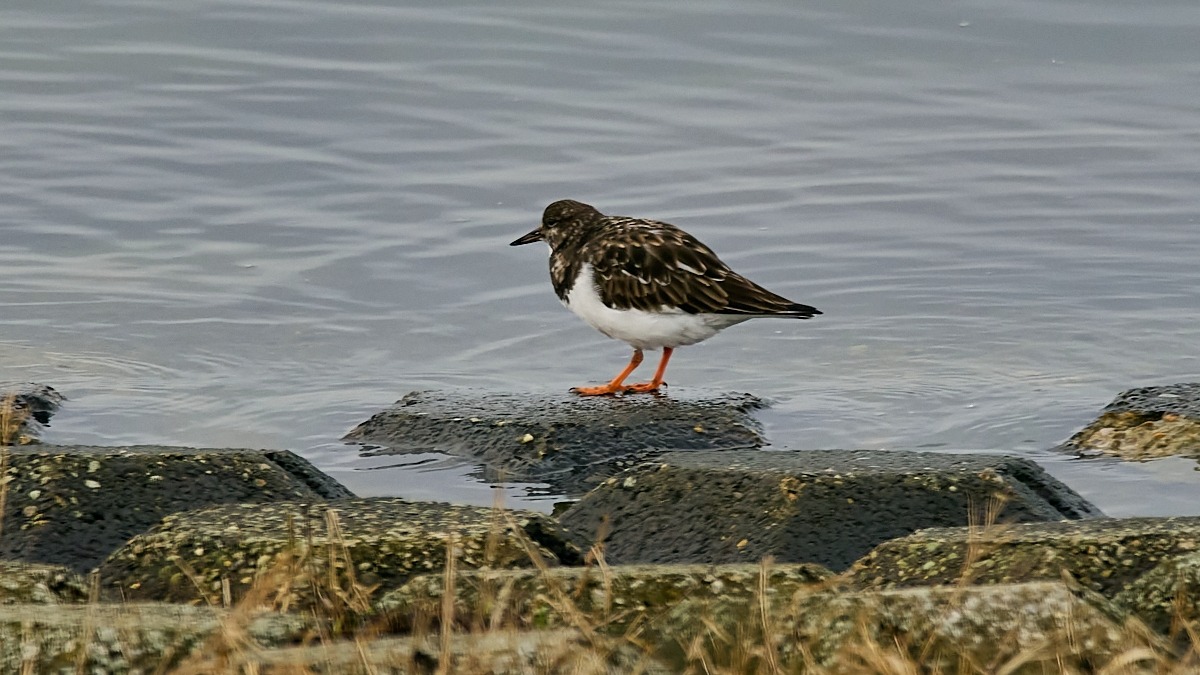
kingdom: Animalia
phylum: Chordata
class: Aves
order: Charadriiformes
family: Scolopacidae
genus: Arenaria
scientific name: Arenaria interpres
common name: Stenvender
